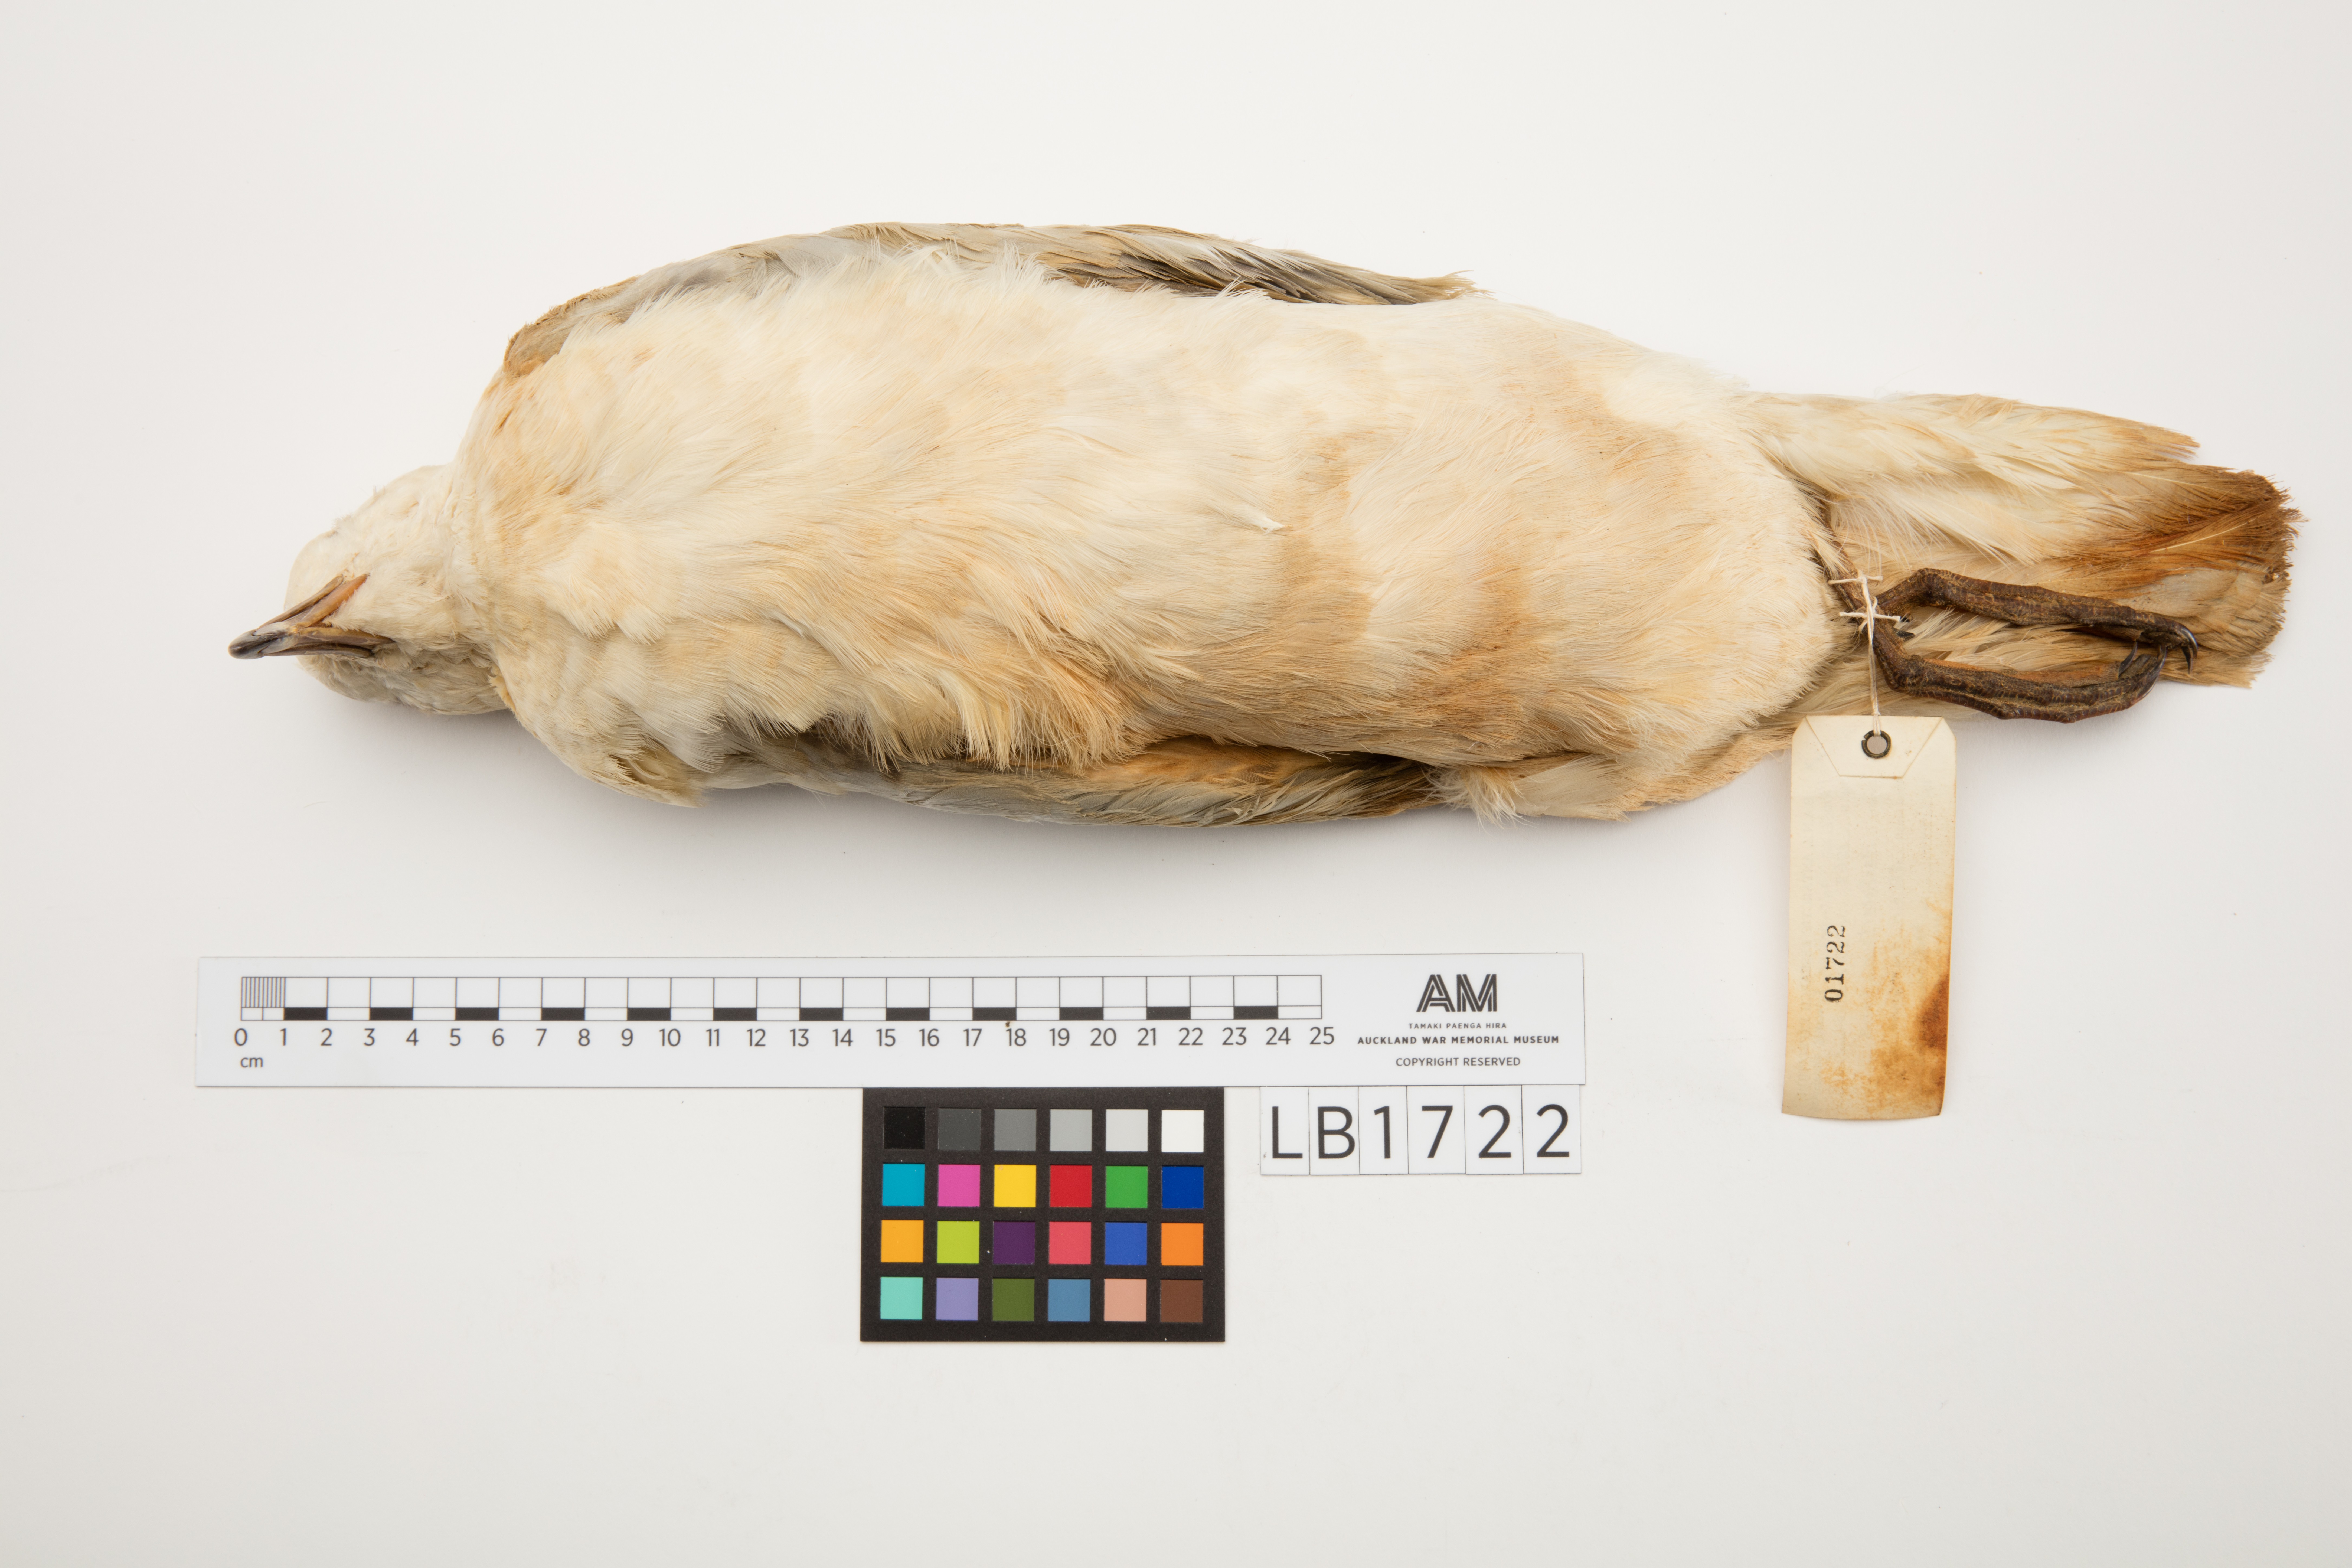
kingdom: Animalia
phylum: Chordata
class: Aves
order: Procellariiformes
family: Procellariidae
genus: Fulmarus
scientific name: Fulmarus glacialoides
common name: Southern fulmar
